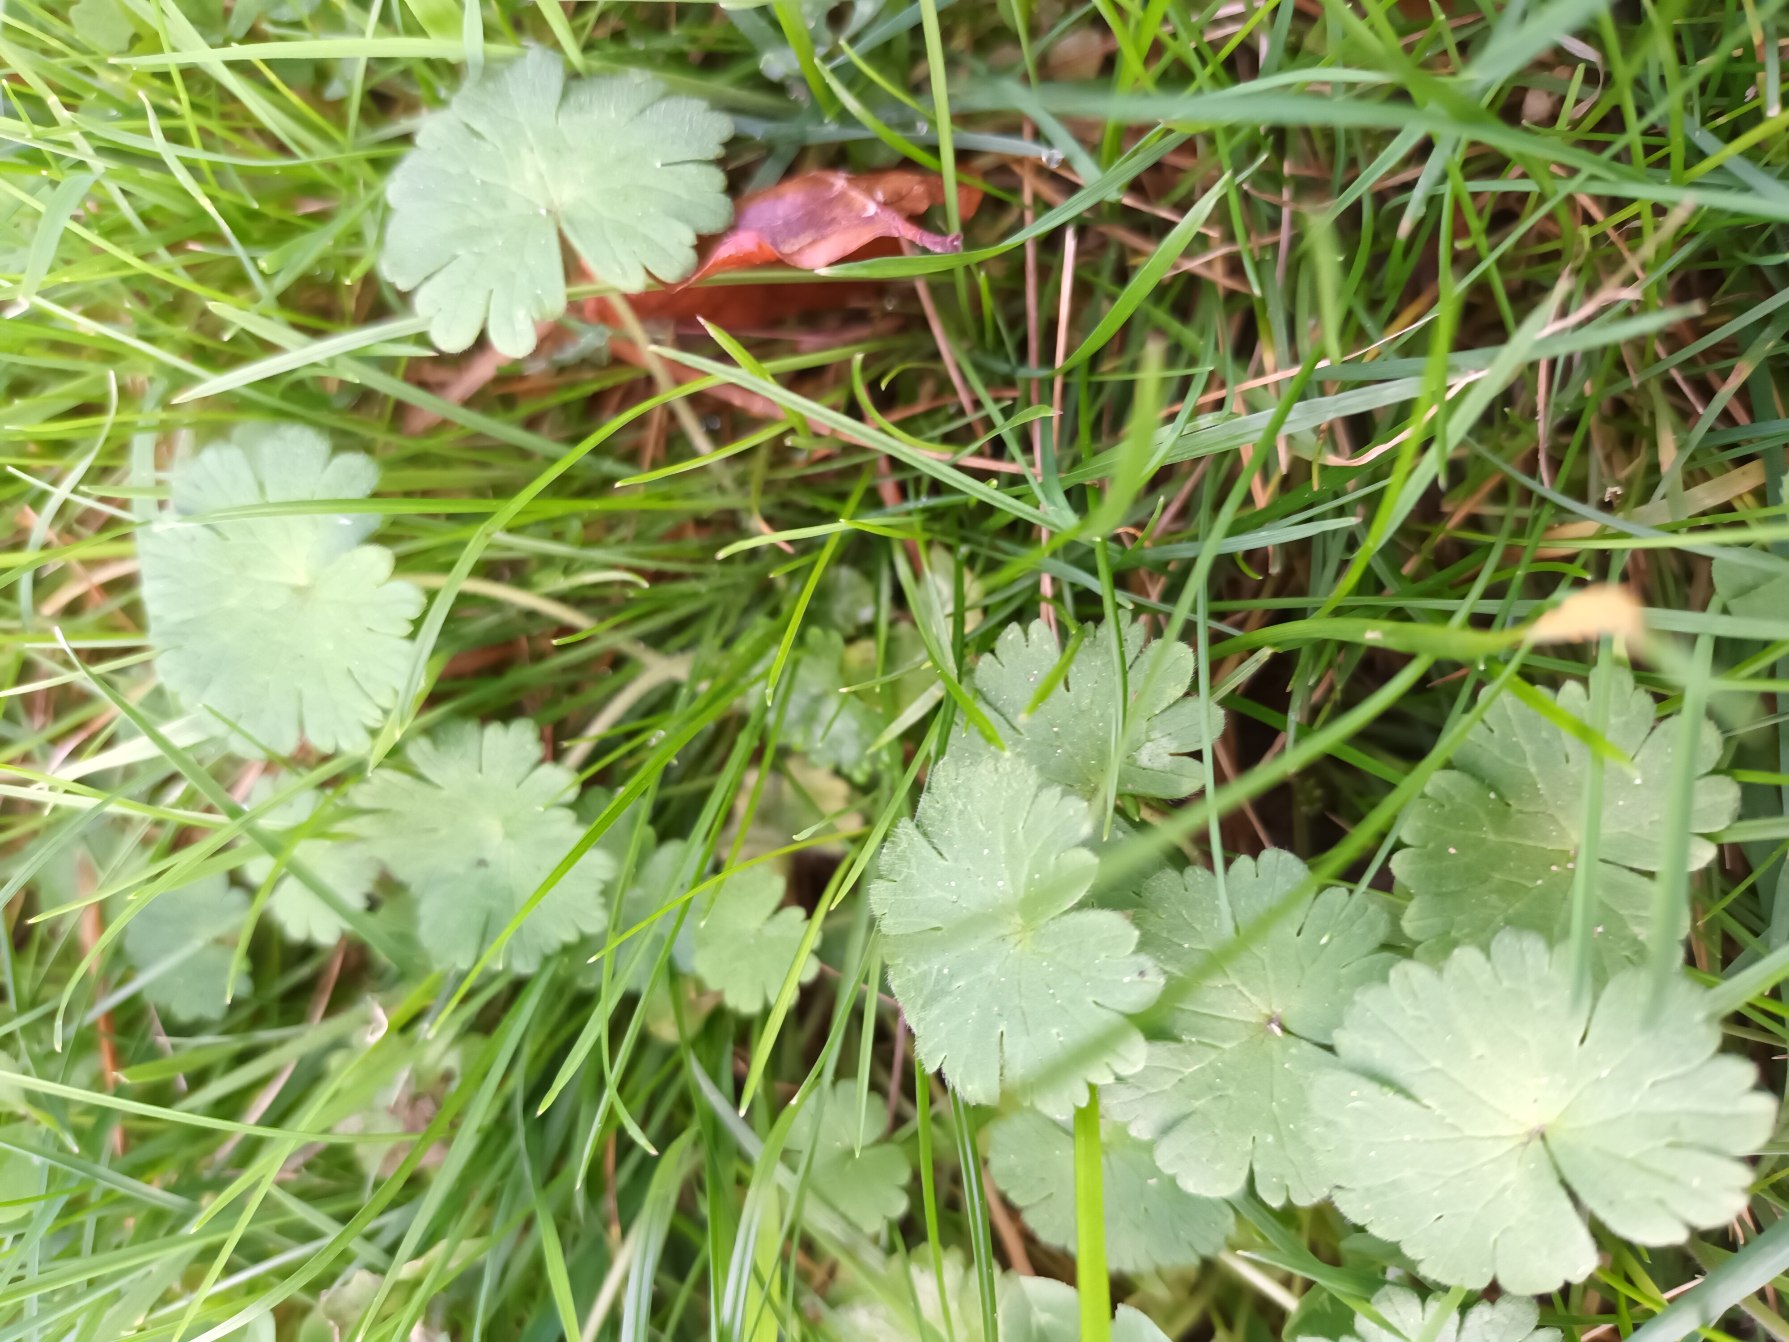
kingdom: Plantae
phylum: Tracheophyta
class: Magnoliopsida
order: Geraniales
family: Geraniaceae
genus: Geranium
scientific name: Geranium pusillum
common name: Liden storkenæb
